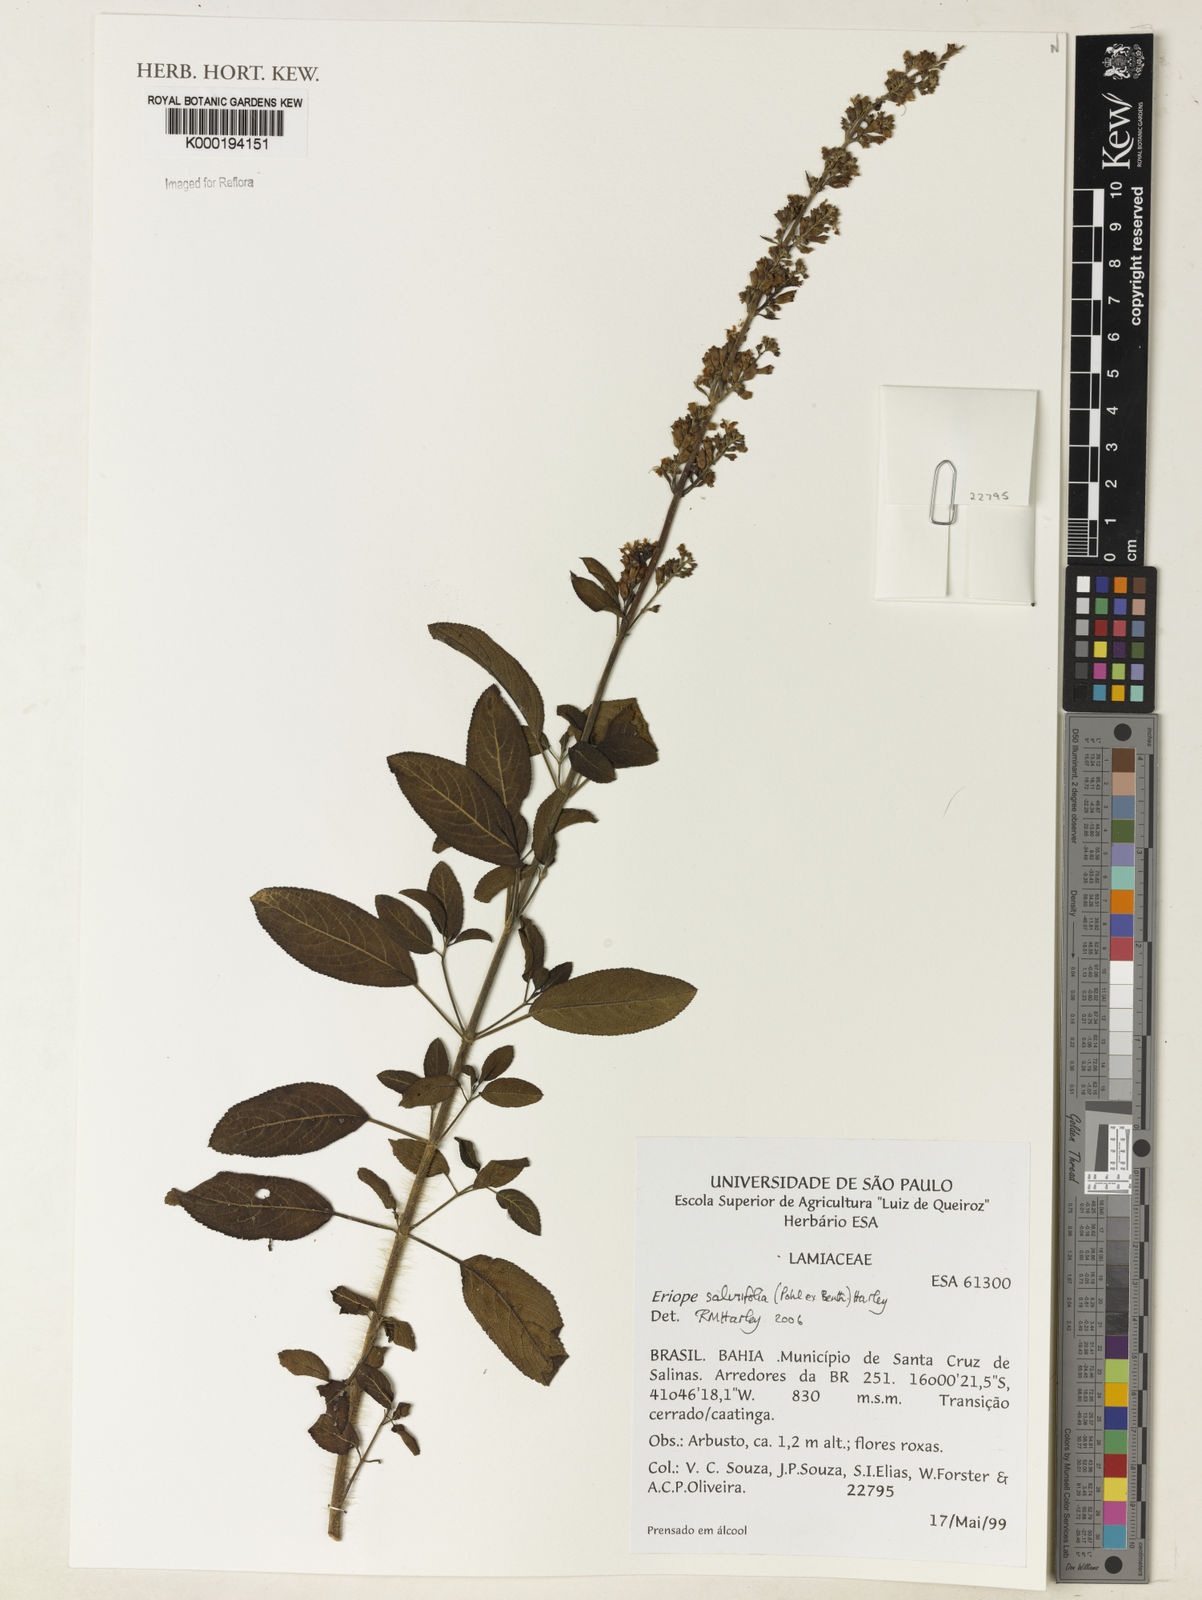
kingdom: Plantae
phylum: Tracheophyta
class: Magnoliopsida
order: Lamiales
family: Lamiaceae
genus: Eriope
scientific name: Eriope salviifolia
